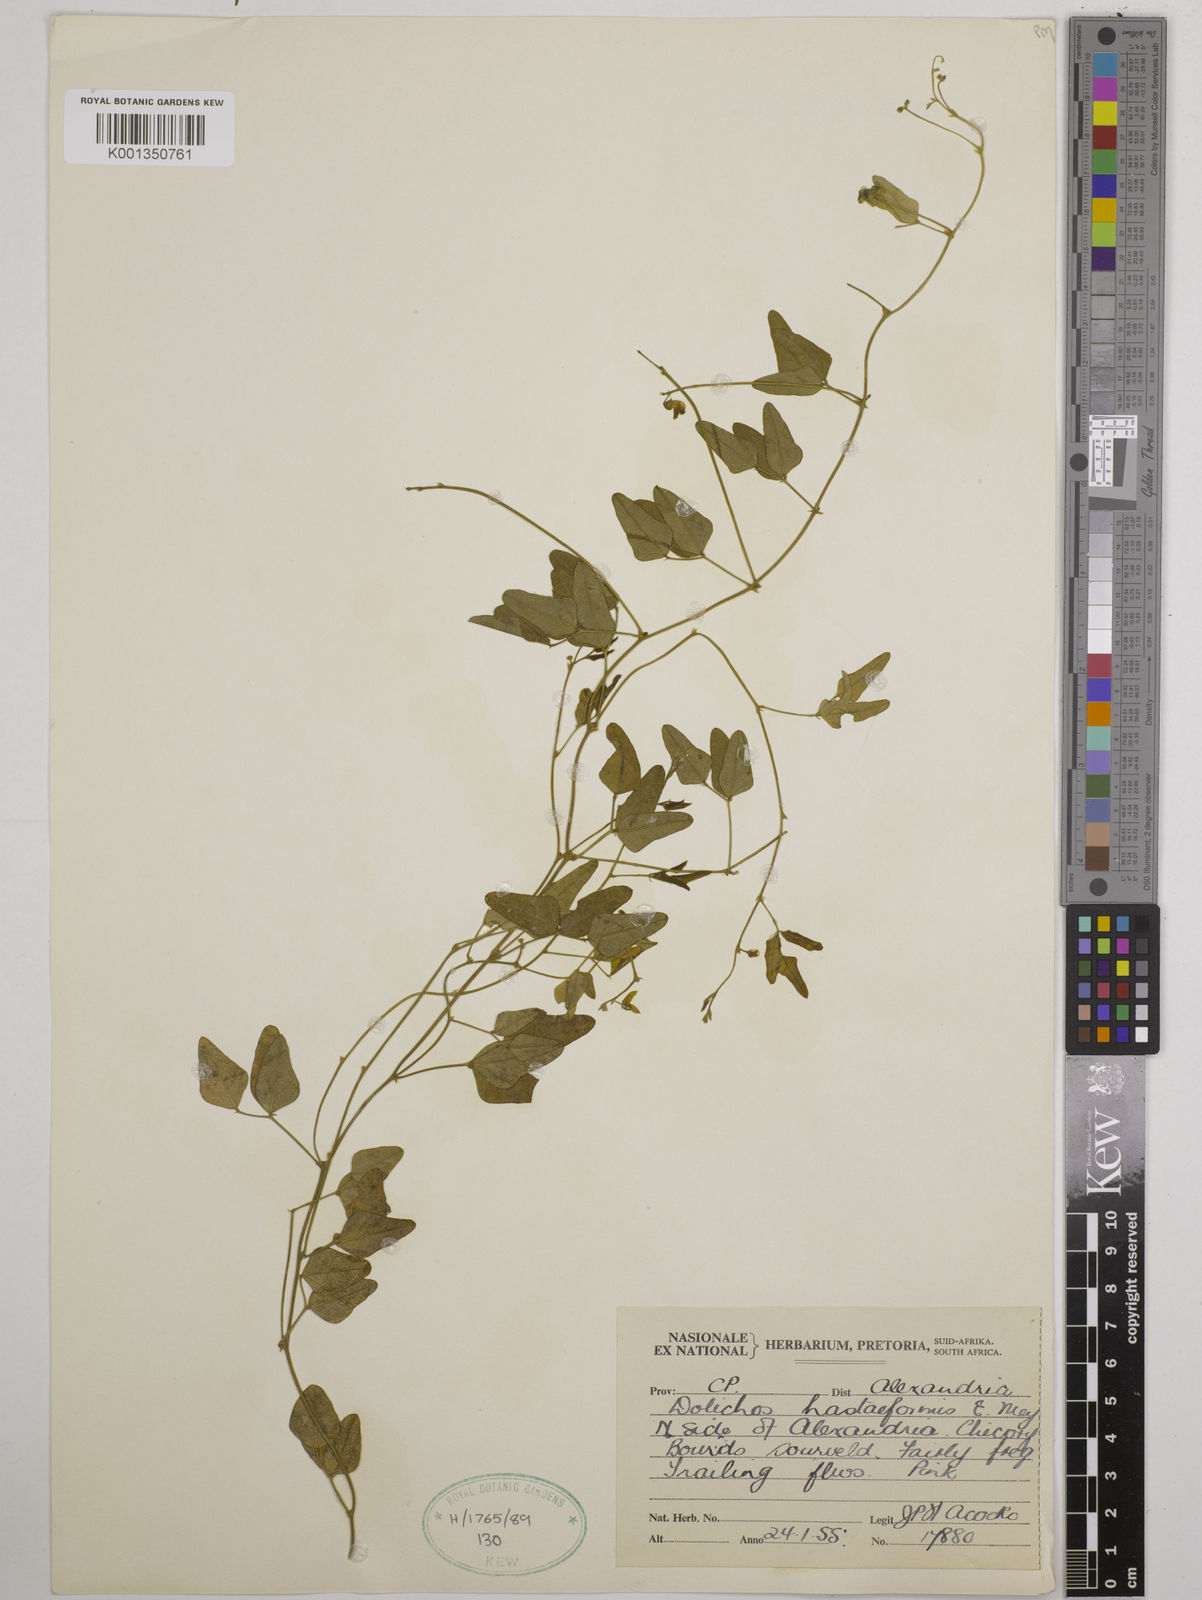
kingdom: Plantae
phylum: Tracheophyta
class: Magnoliopsida
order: Fabales
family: Fabaceae
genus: Dolichos
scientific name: Dolichos
